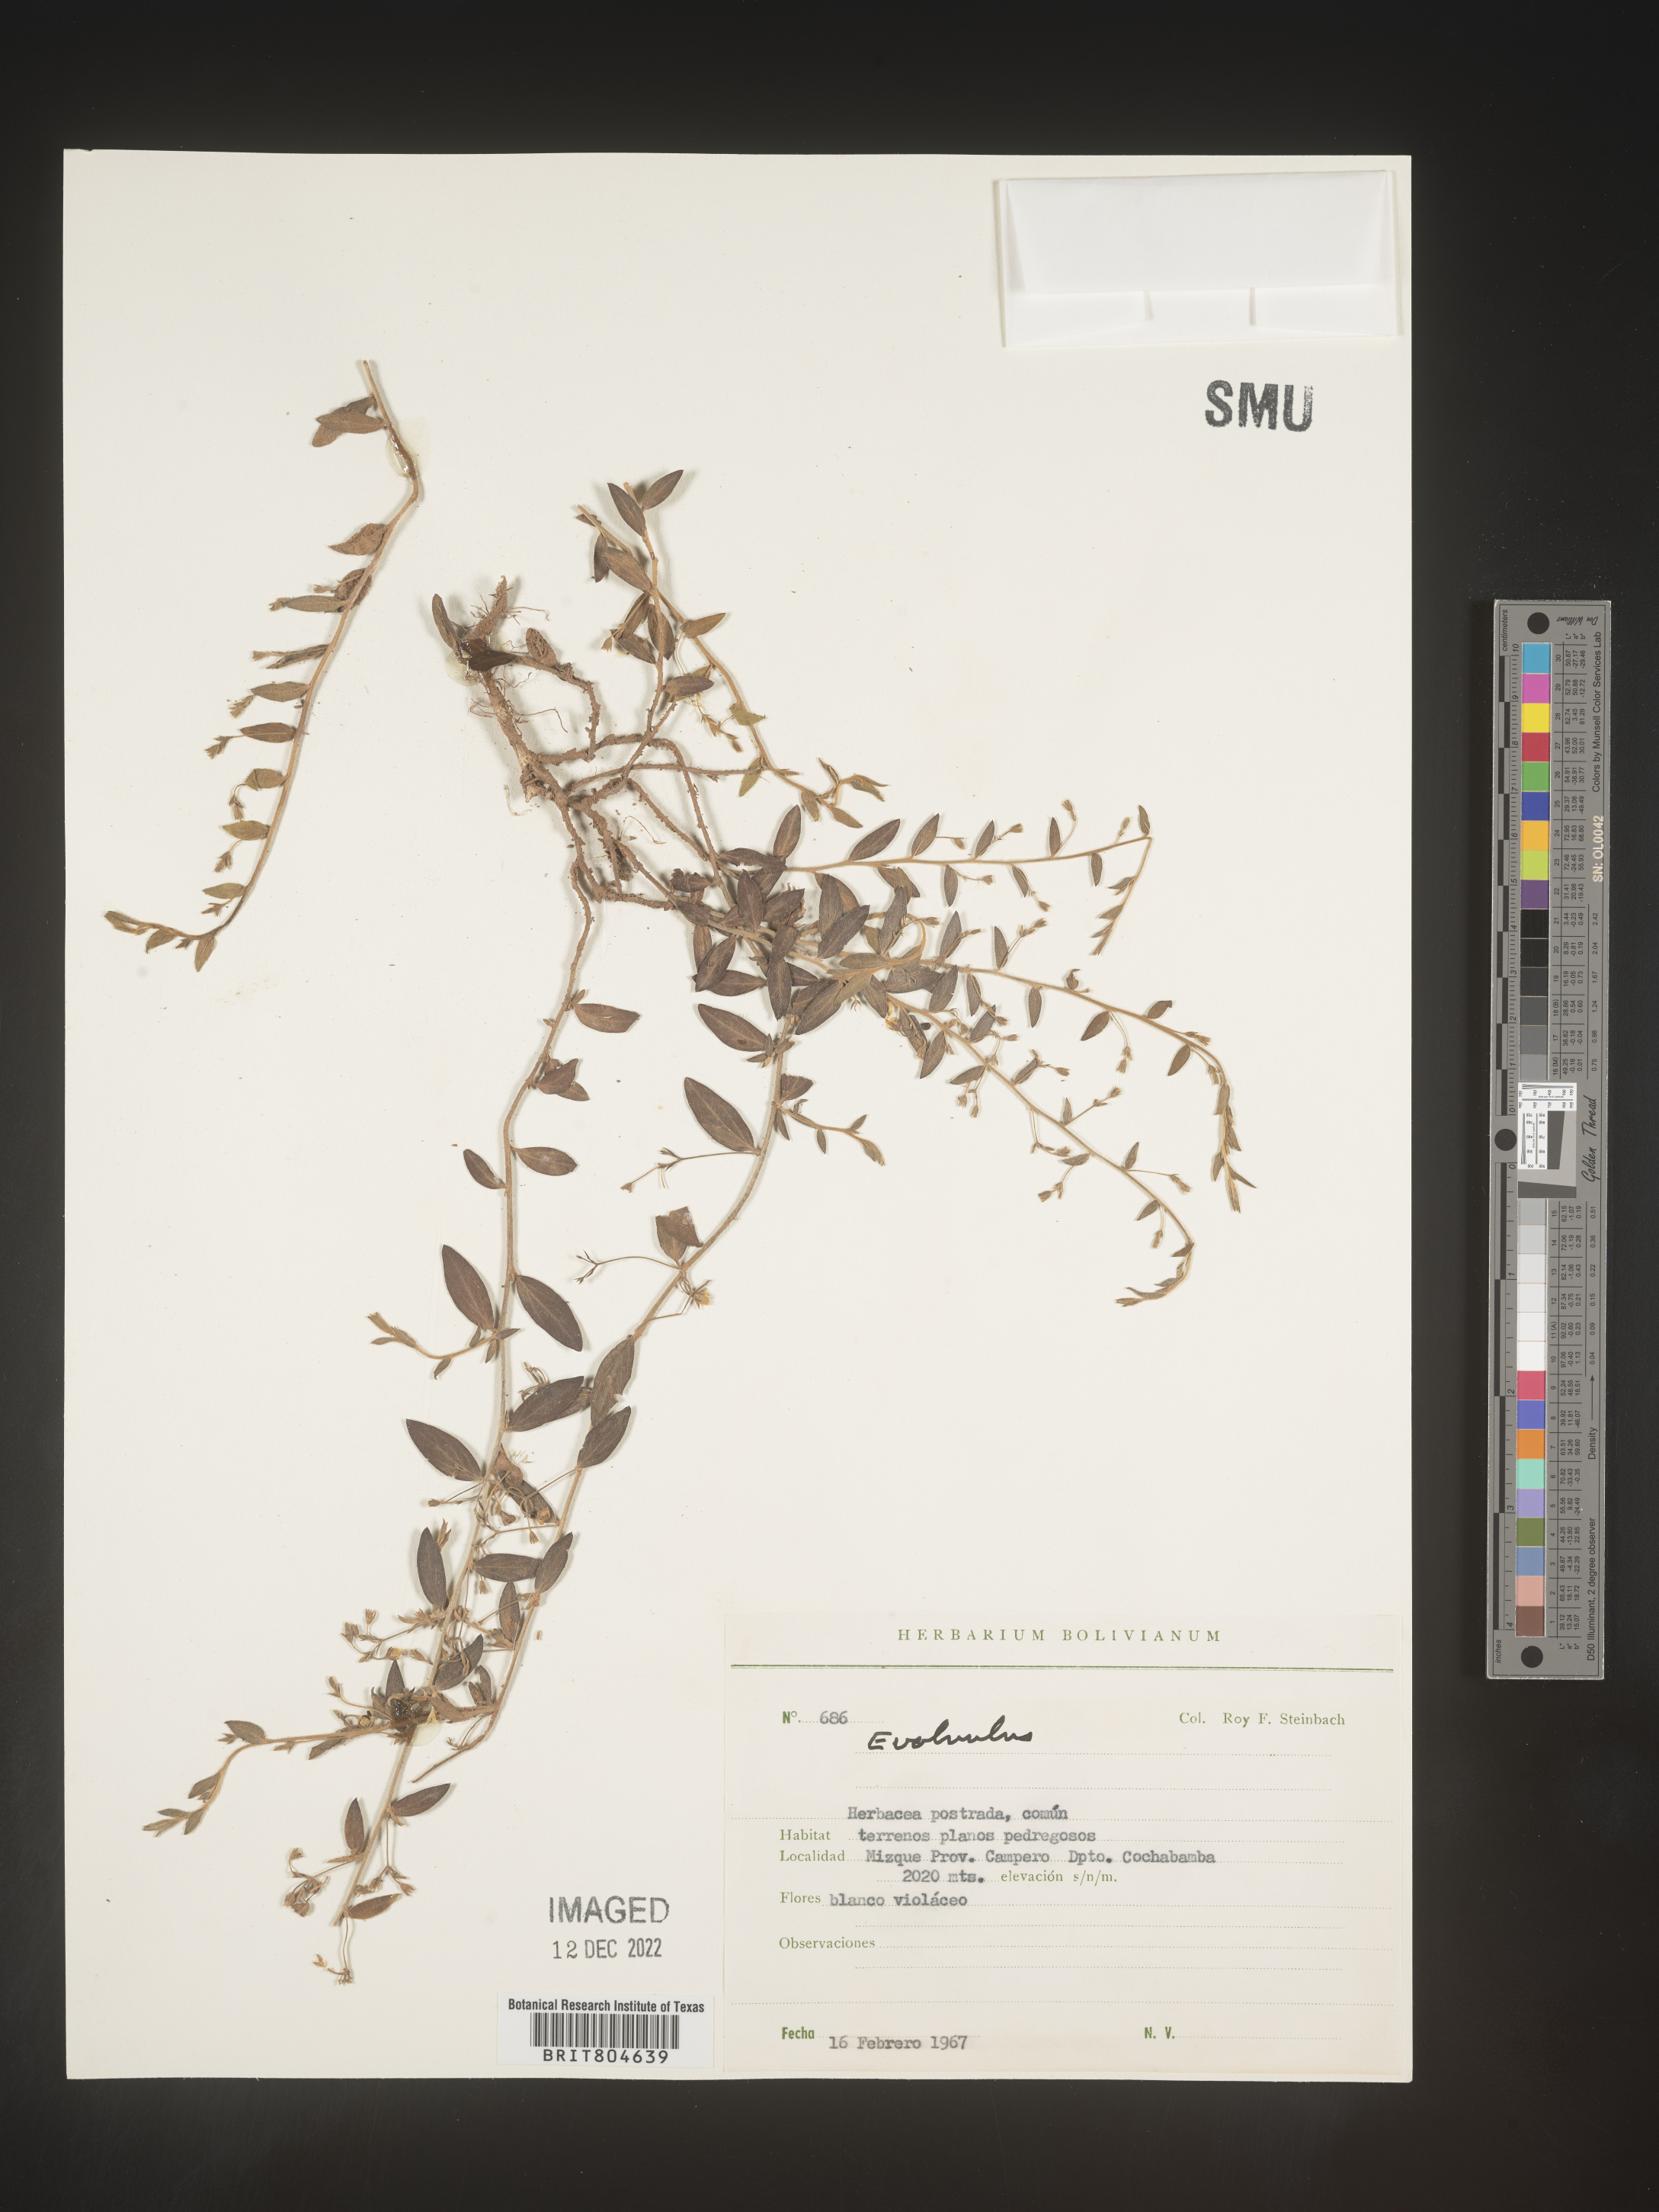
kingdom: Plantae
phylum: Tracheophyta
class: Magnoliopsida
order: Solanales
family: Convolvulaceae
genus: Evolvulus
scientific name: Evolvulus
